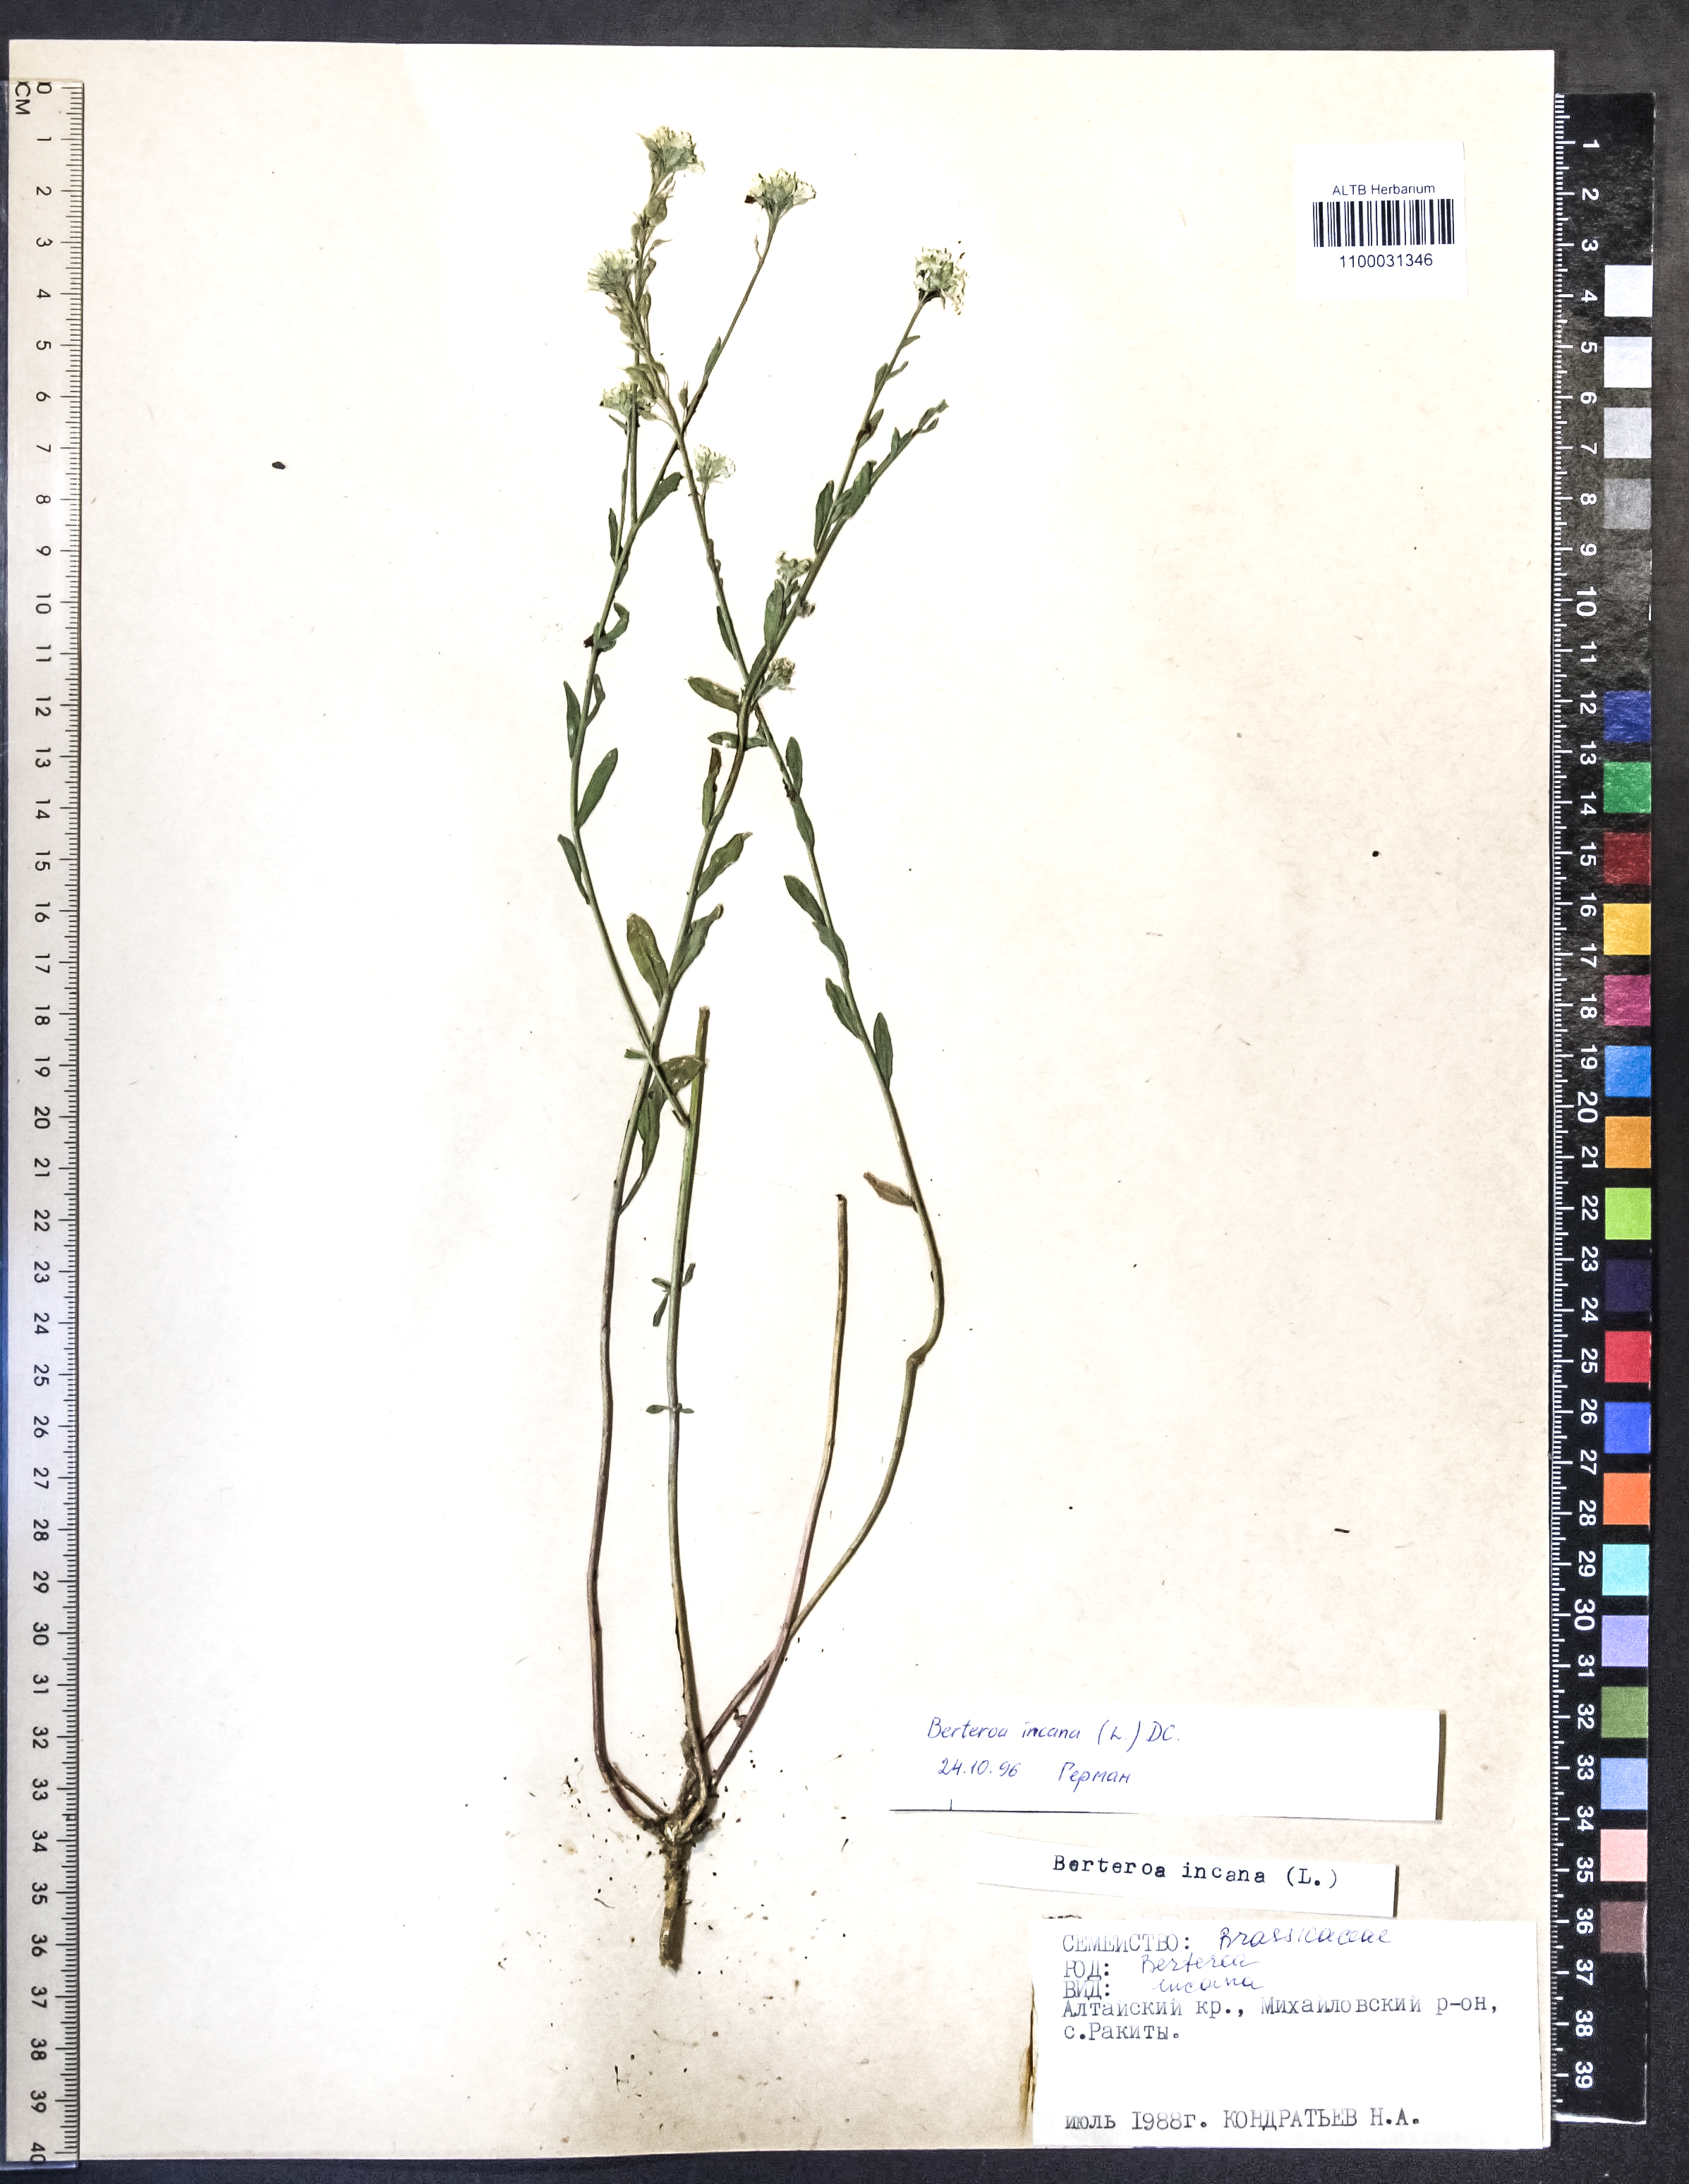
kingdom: Plantae
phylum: Tracheophyta
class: Magnoliopsida
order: Brassicales
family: Brassicaceae
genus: Berteroa
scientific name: Berteroa incana
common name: Hoary alison
